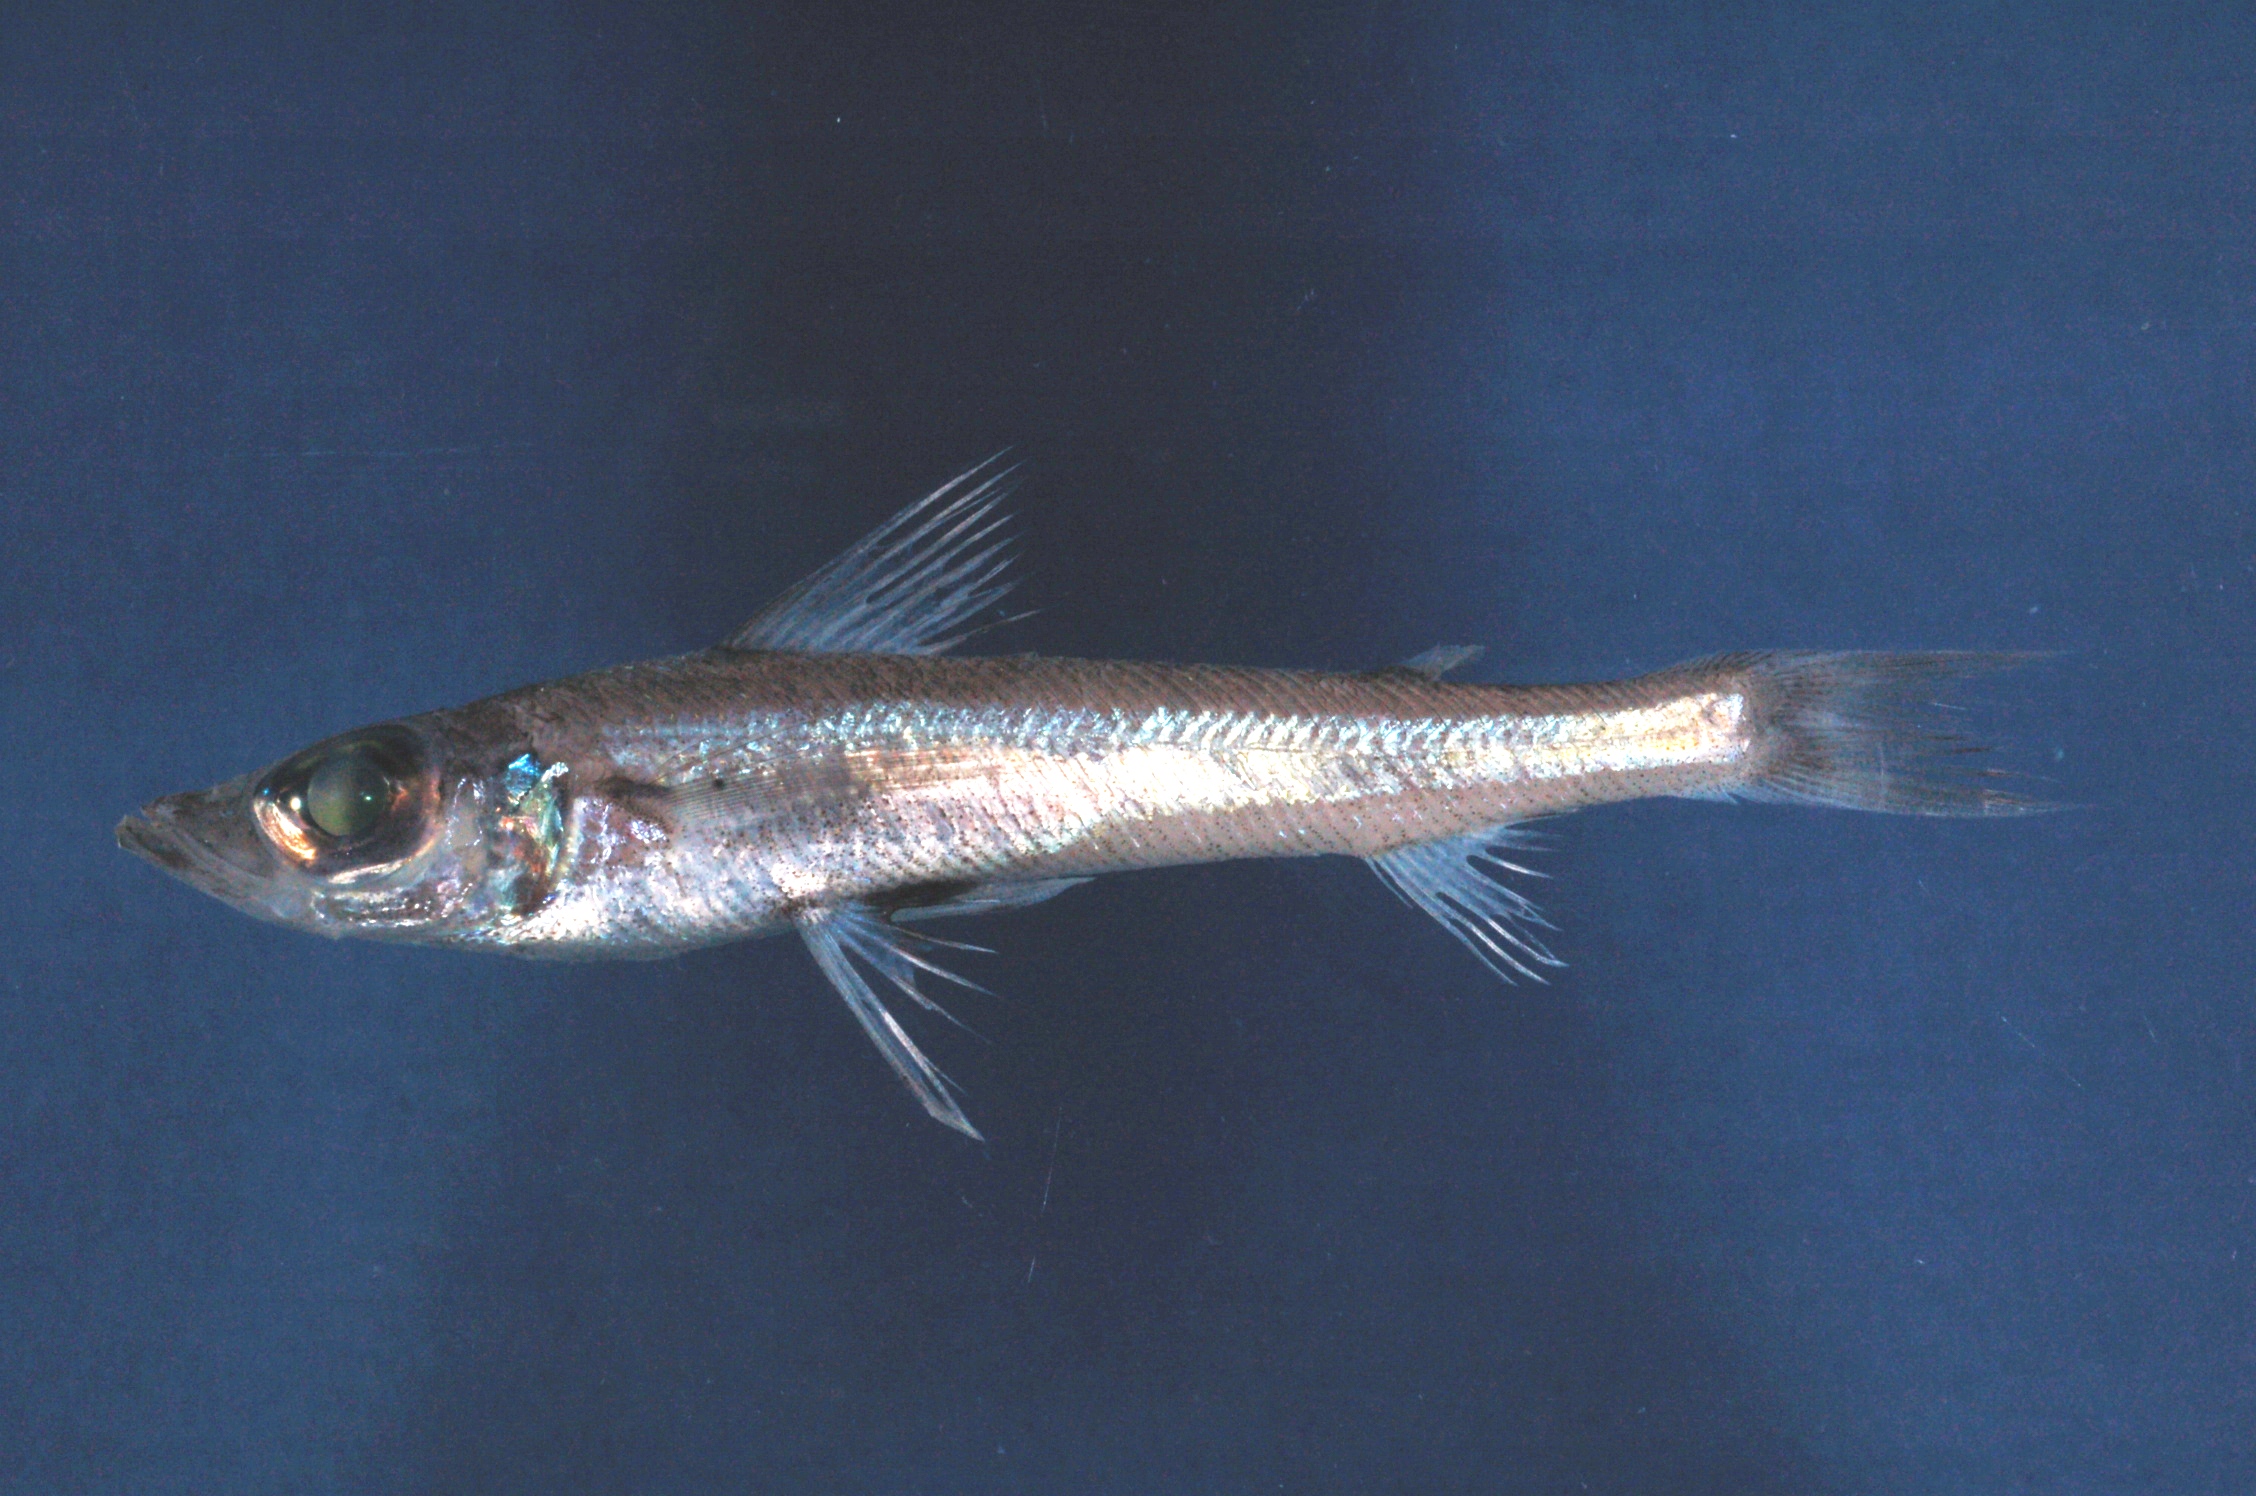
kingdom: Animalia
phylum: Chordata
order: Aulopiformes
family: Chlorophthalmidae
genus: Chlorophthalmus
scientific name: Chlorophthalmus agassizi
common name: Shortnose greeneye
